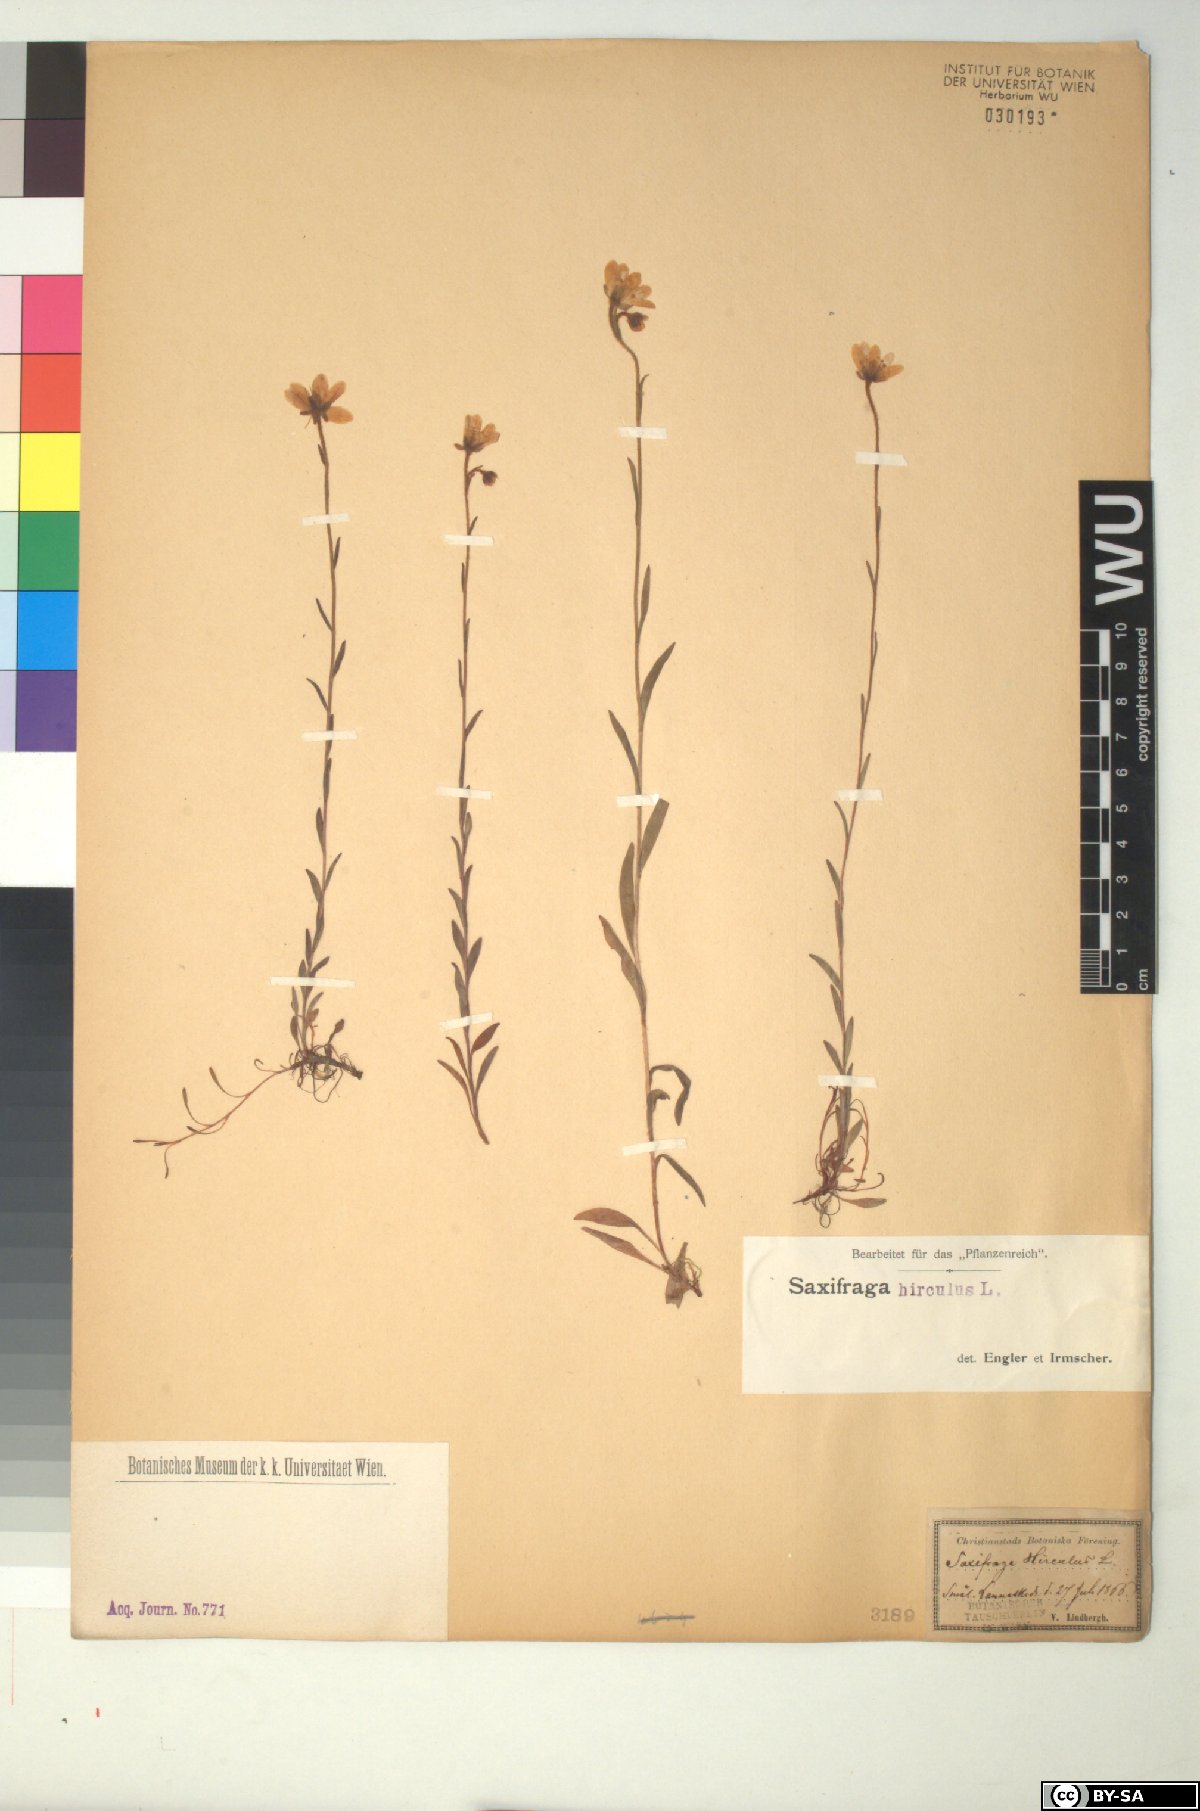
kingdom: Plantae
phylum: Tracheophyta
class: Magnoliopsida
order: Saxifragales
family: Saxifragaceae
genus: Saxifraga
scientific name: Saxifraga hirculus
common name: Yellow marsh saxifrage
